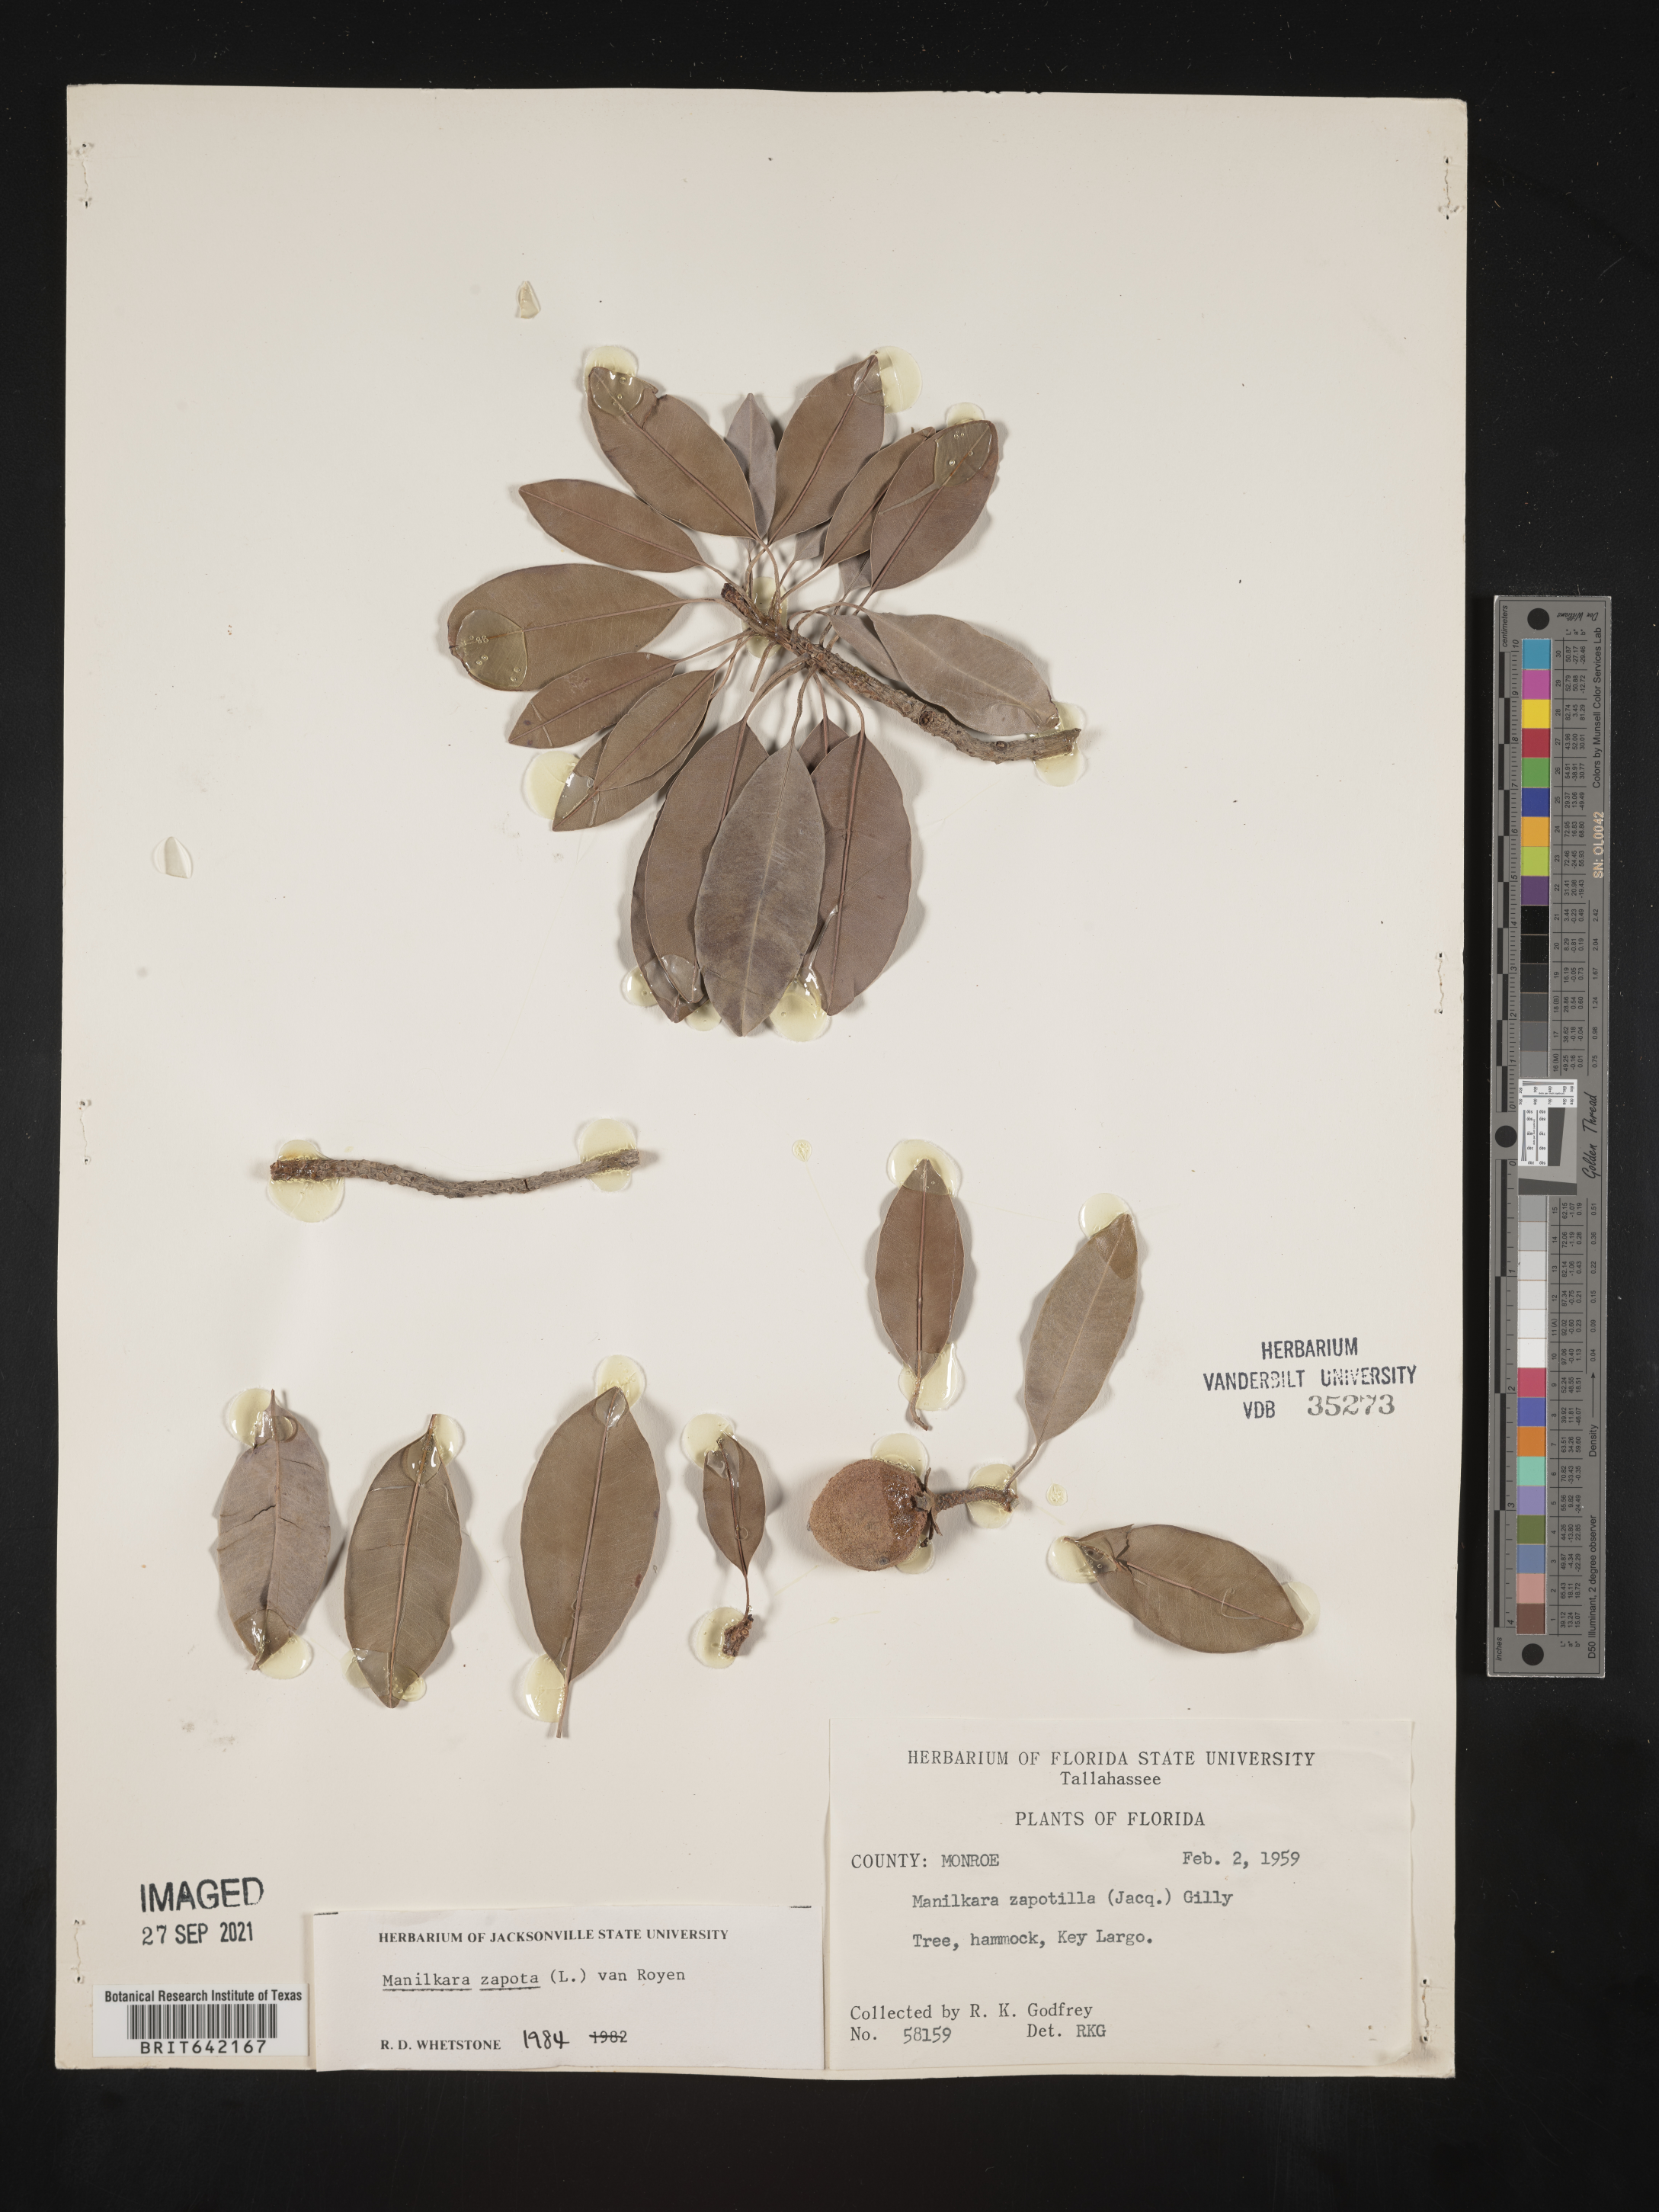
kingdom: Plantae
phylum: Tracheophyta
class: Magnoliopsida
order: Ericales
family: Sapotaceae
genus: Manilkara
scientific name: Manilkara zapota
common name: Sapodilla
